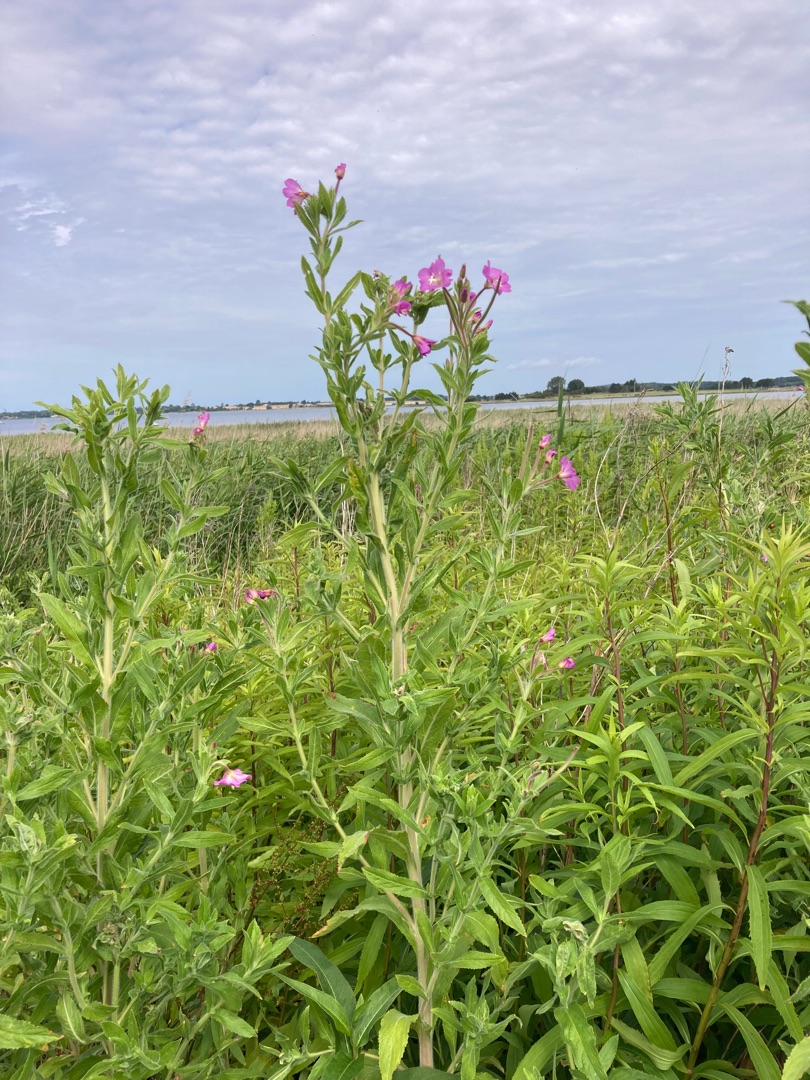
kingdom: Plantae
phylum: Tracheophyta
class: Magnoliopsida
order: Myrtales
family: Onagraceae
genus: Epilobium
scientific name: Epilobium hirsutum
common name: Lådden dueurt
